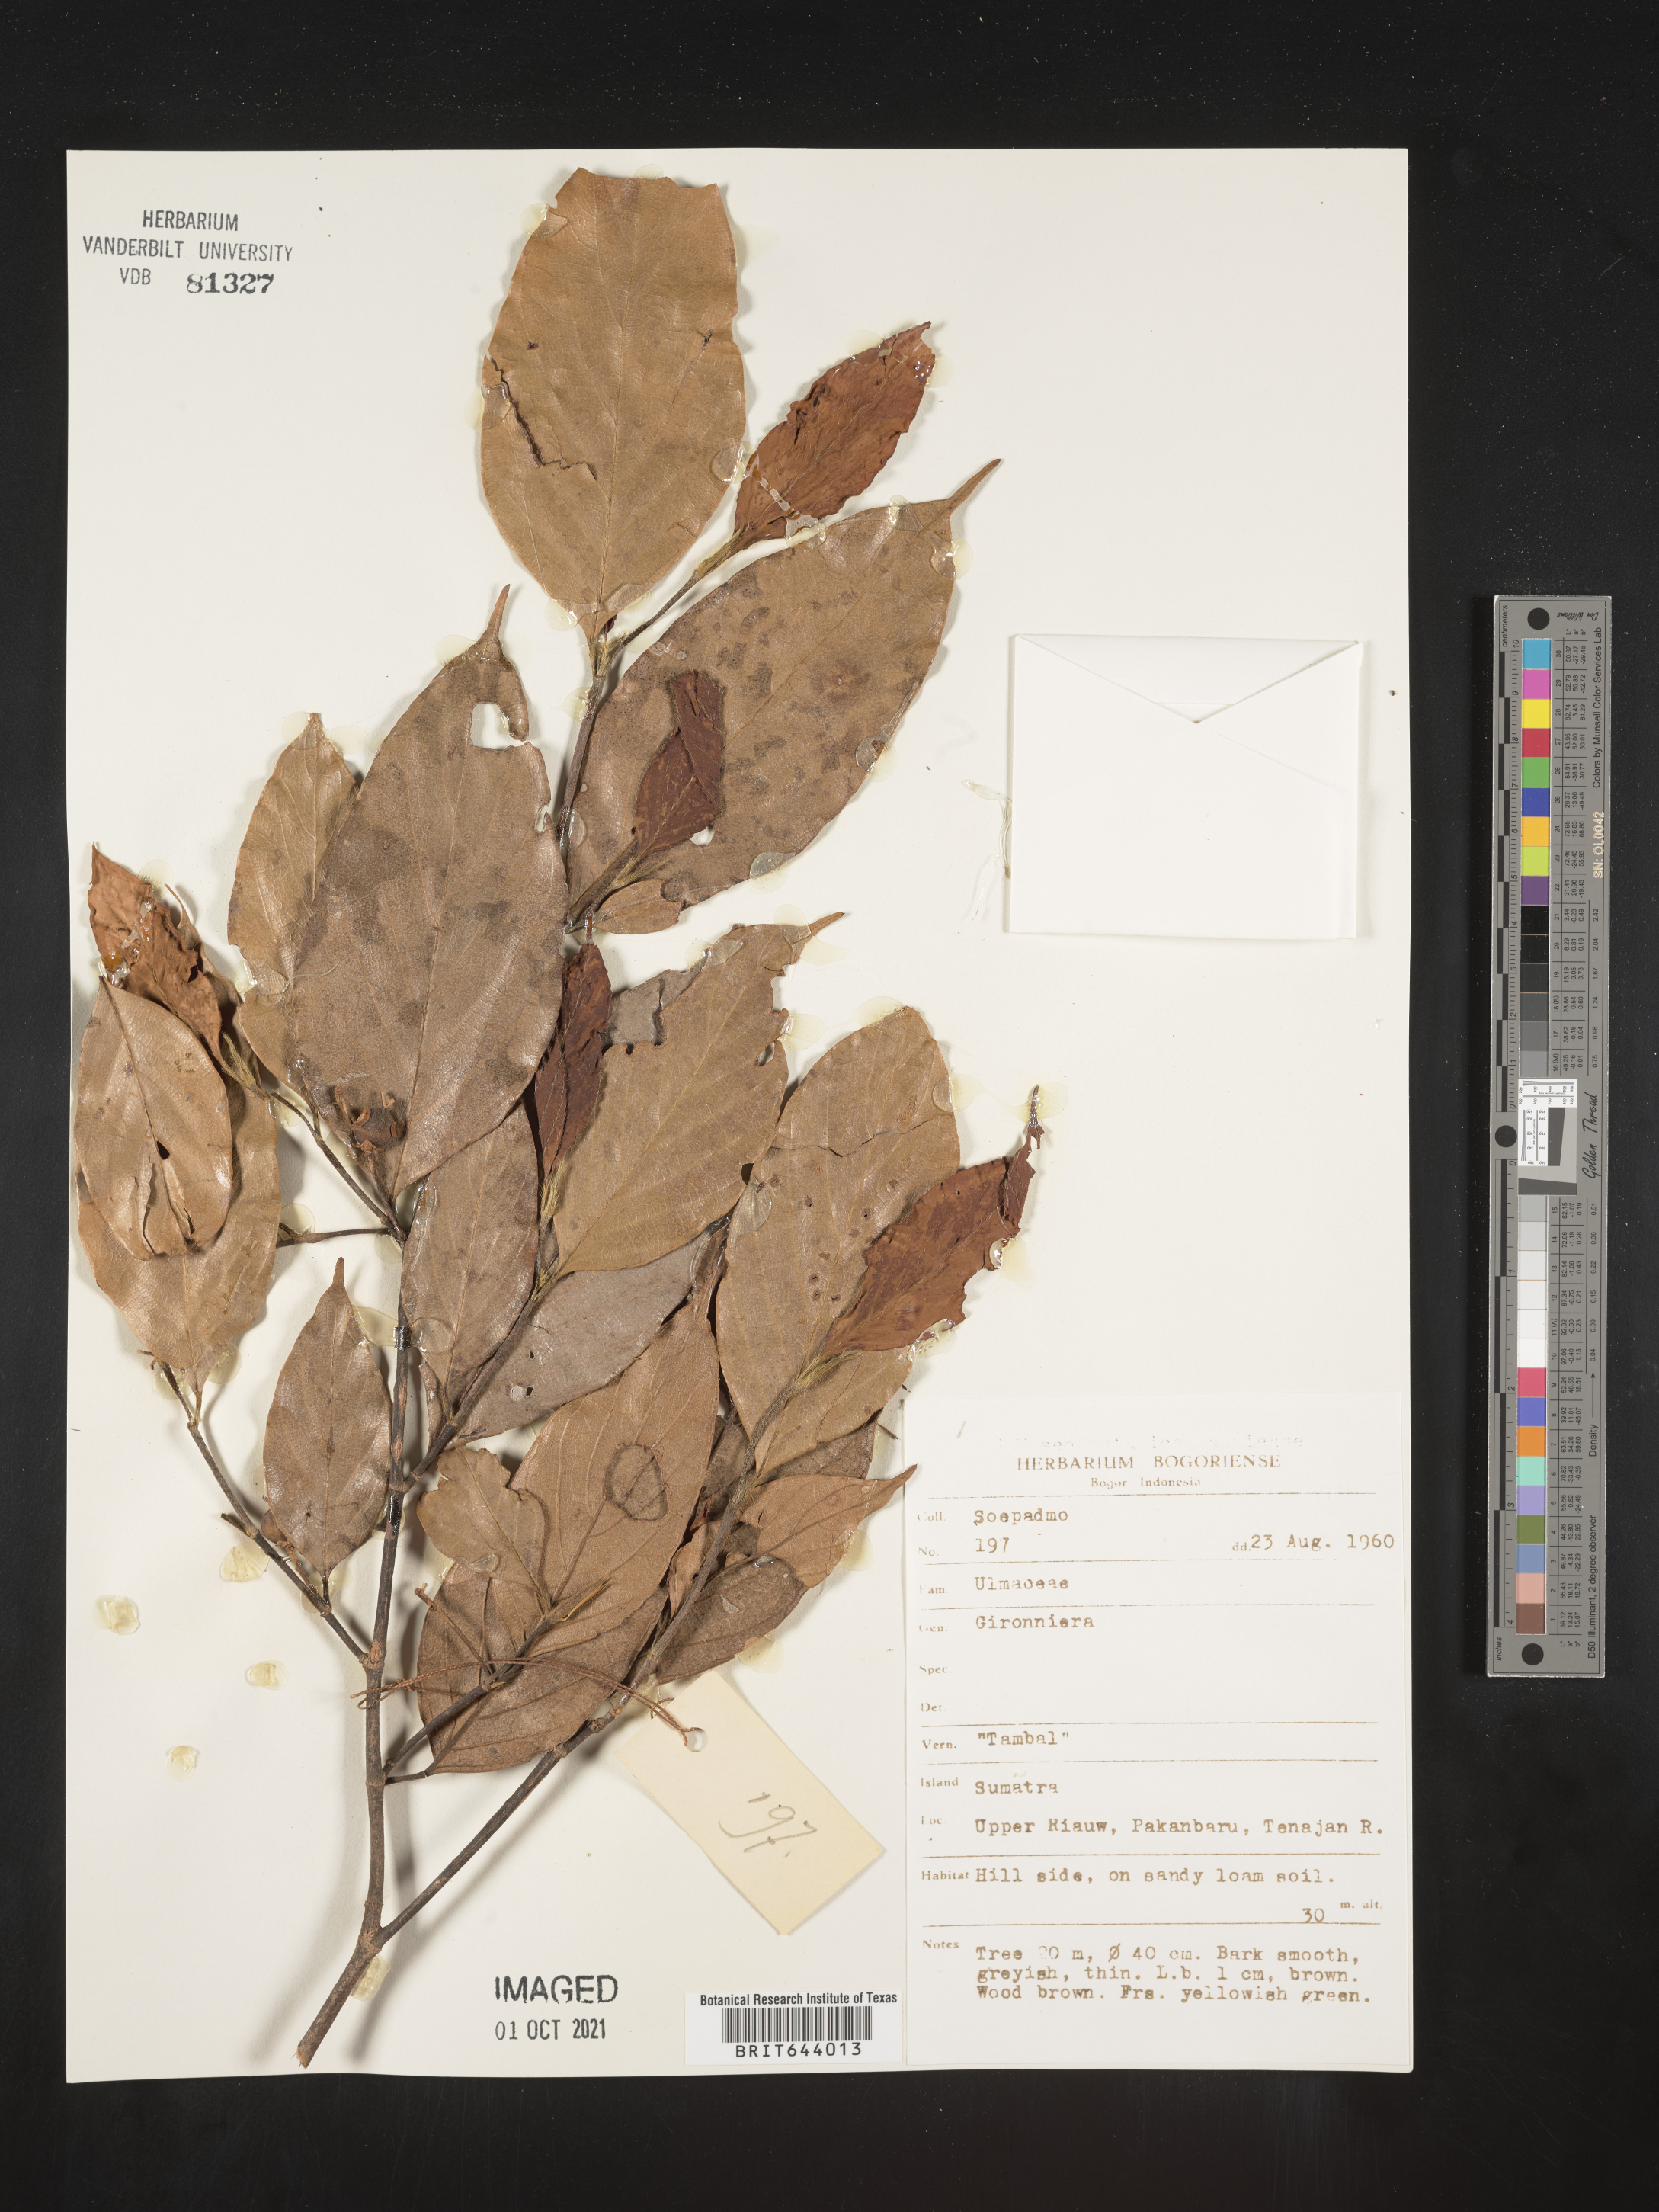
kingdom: Plantae
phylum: Tracheophyta
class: Magnoliopsida
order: Rosales
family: Cannabaceae
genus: Gironniera
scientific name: Gironniera
